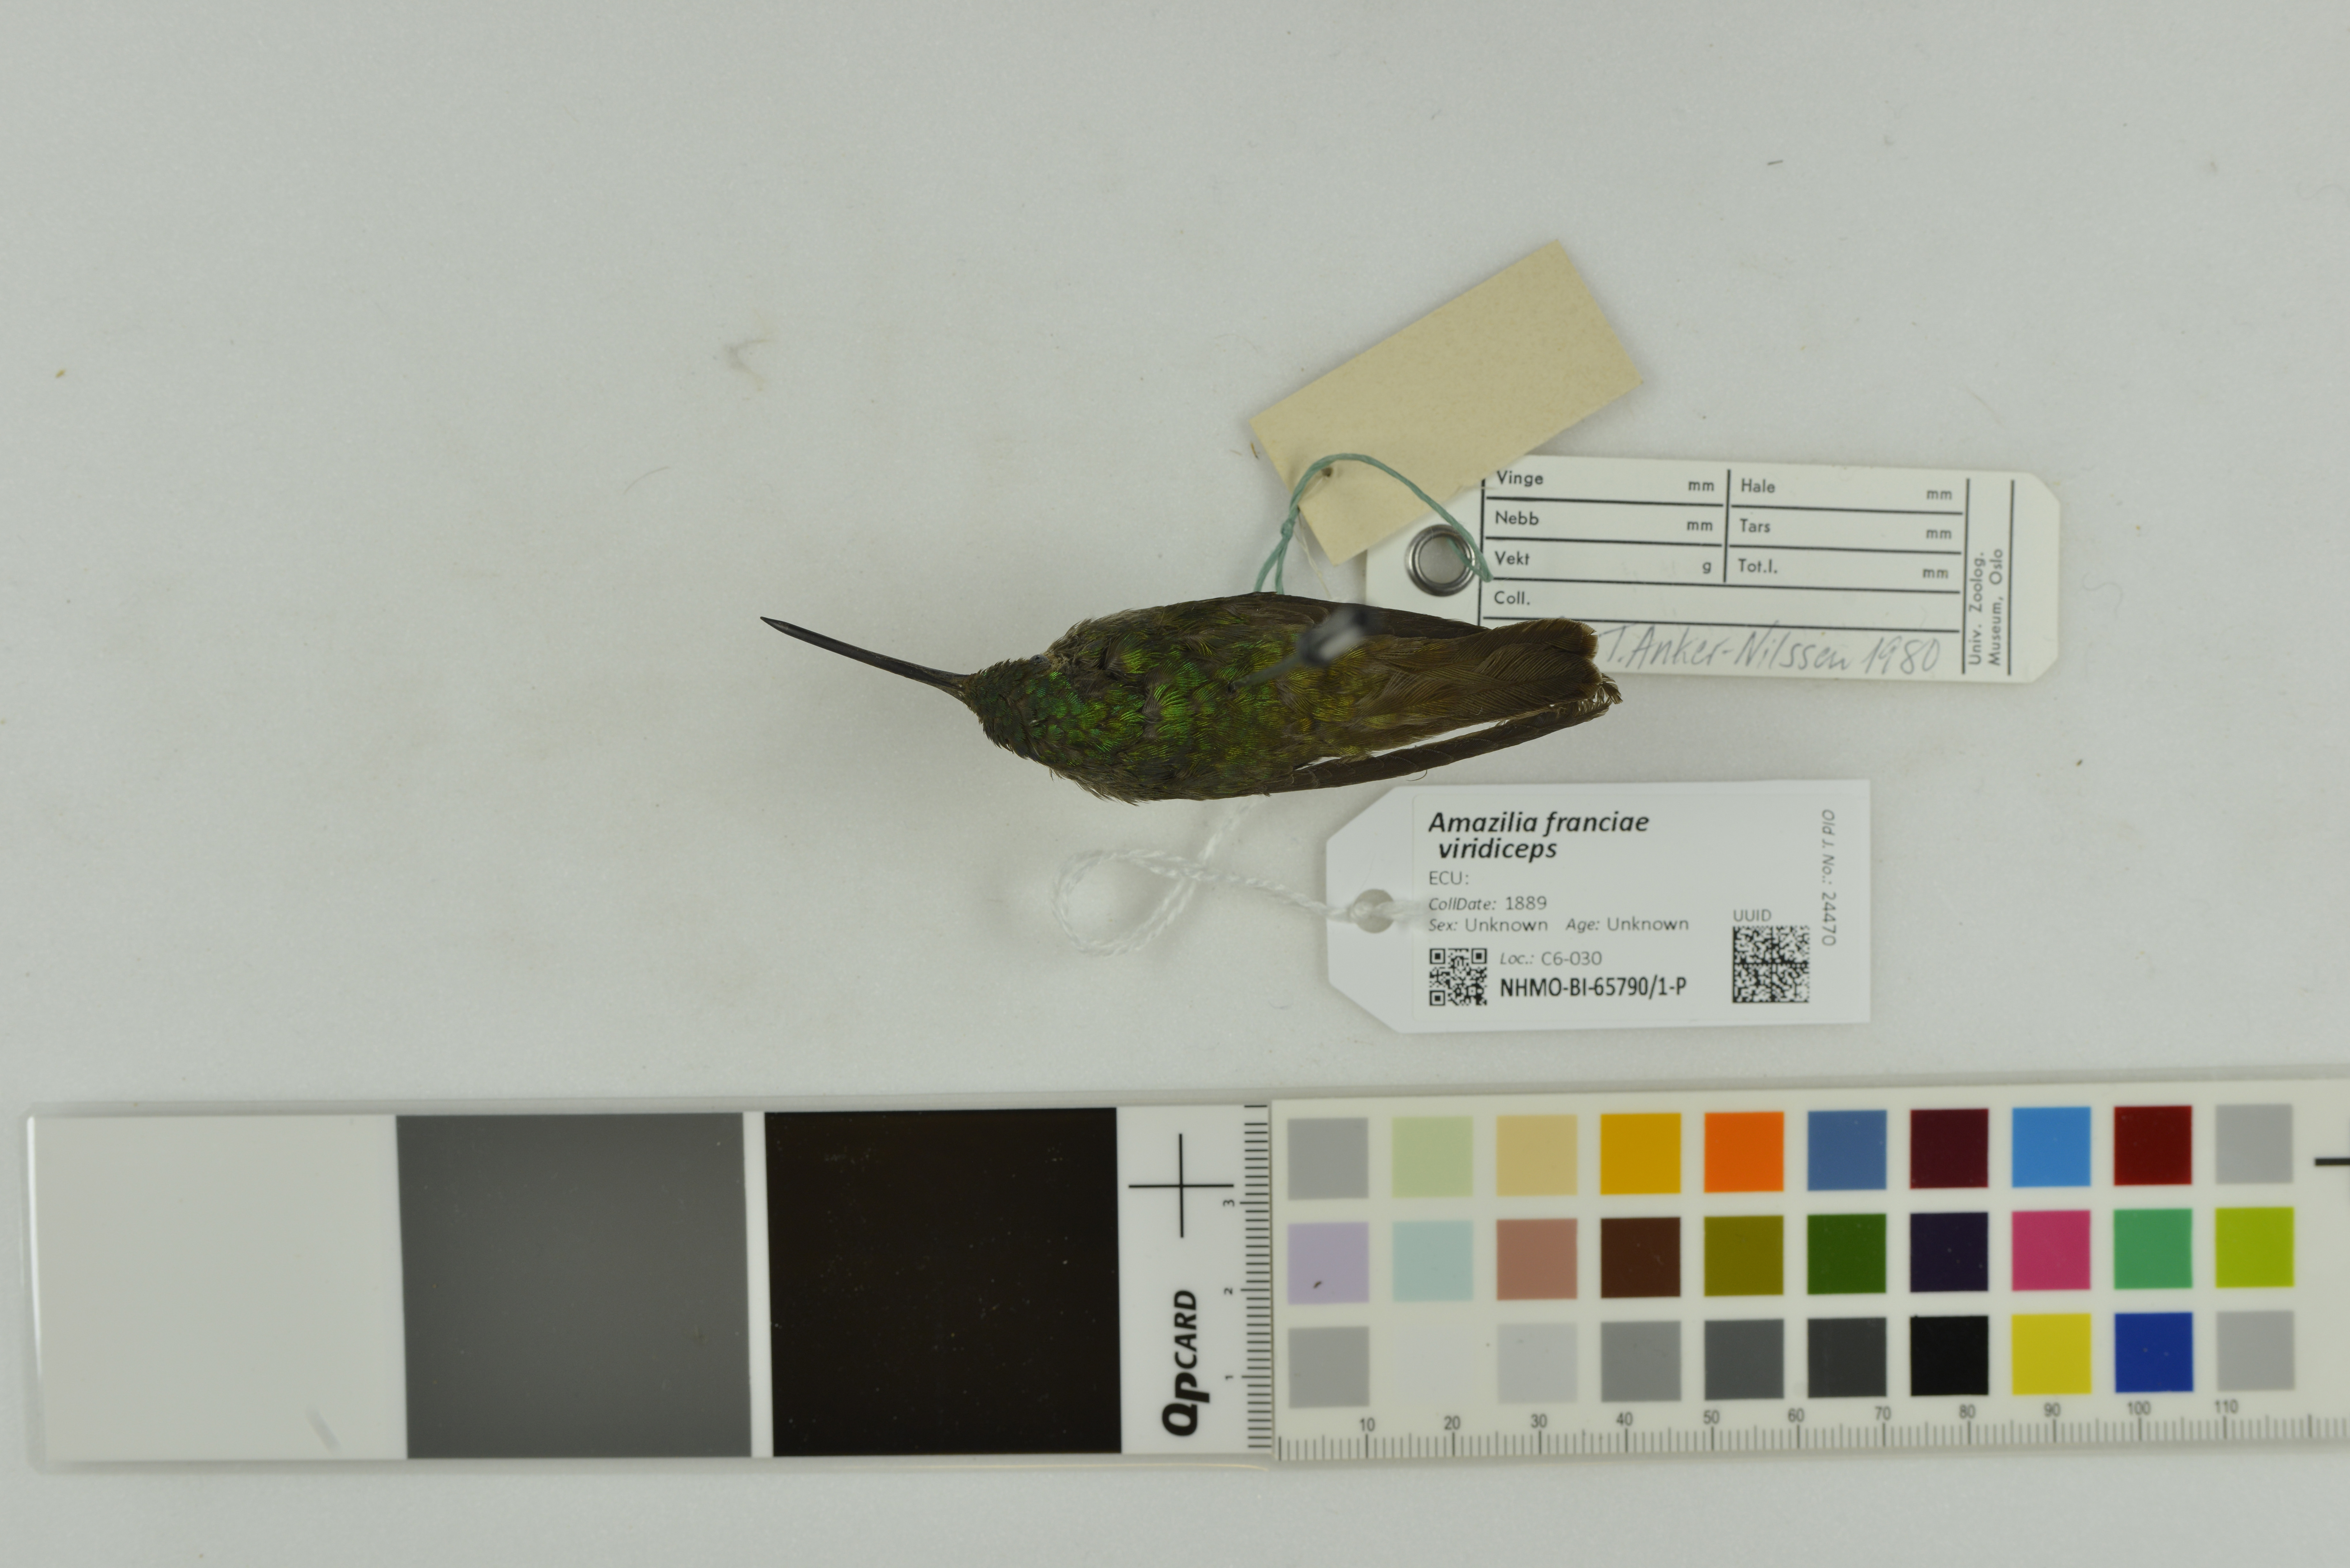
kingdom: Animalia
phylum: Chordata
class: Aves
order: Apodiformes
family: Trochilidae
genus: Uranomitra
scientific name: Uranomitra franciae
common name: Andean emerald
